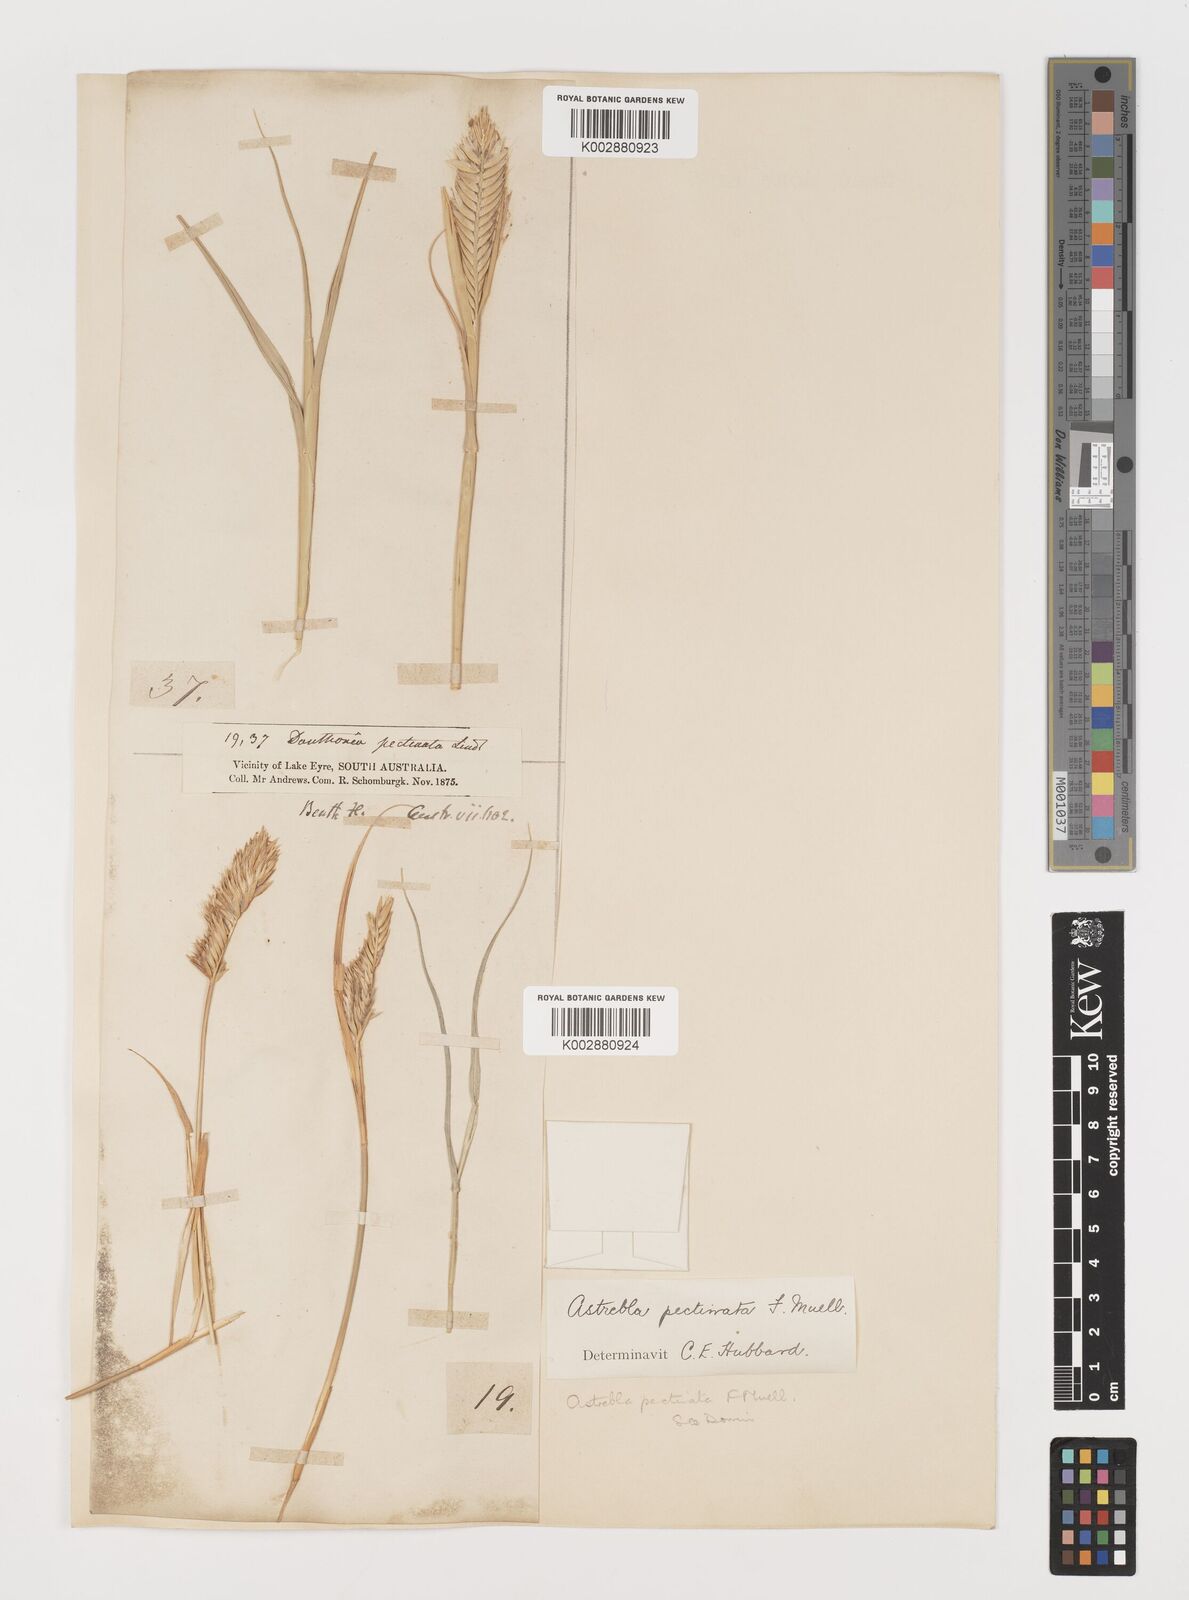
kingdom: Plantae
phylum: Tracheophyta
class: Liliopsida
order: Poales
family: Poaceae
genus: Astrebla
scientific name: Astrebla pectinata
